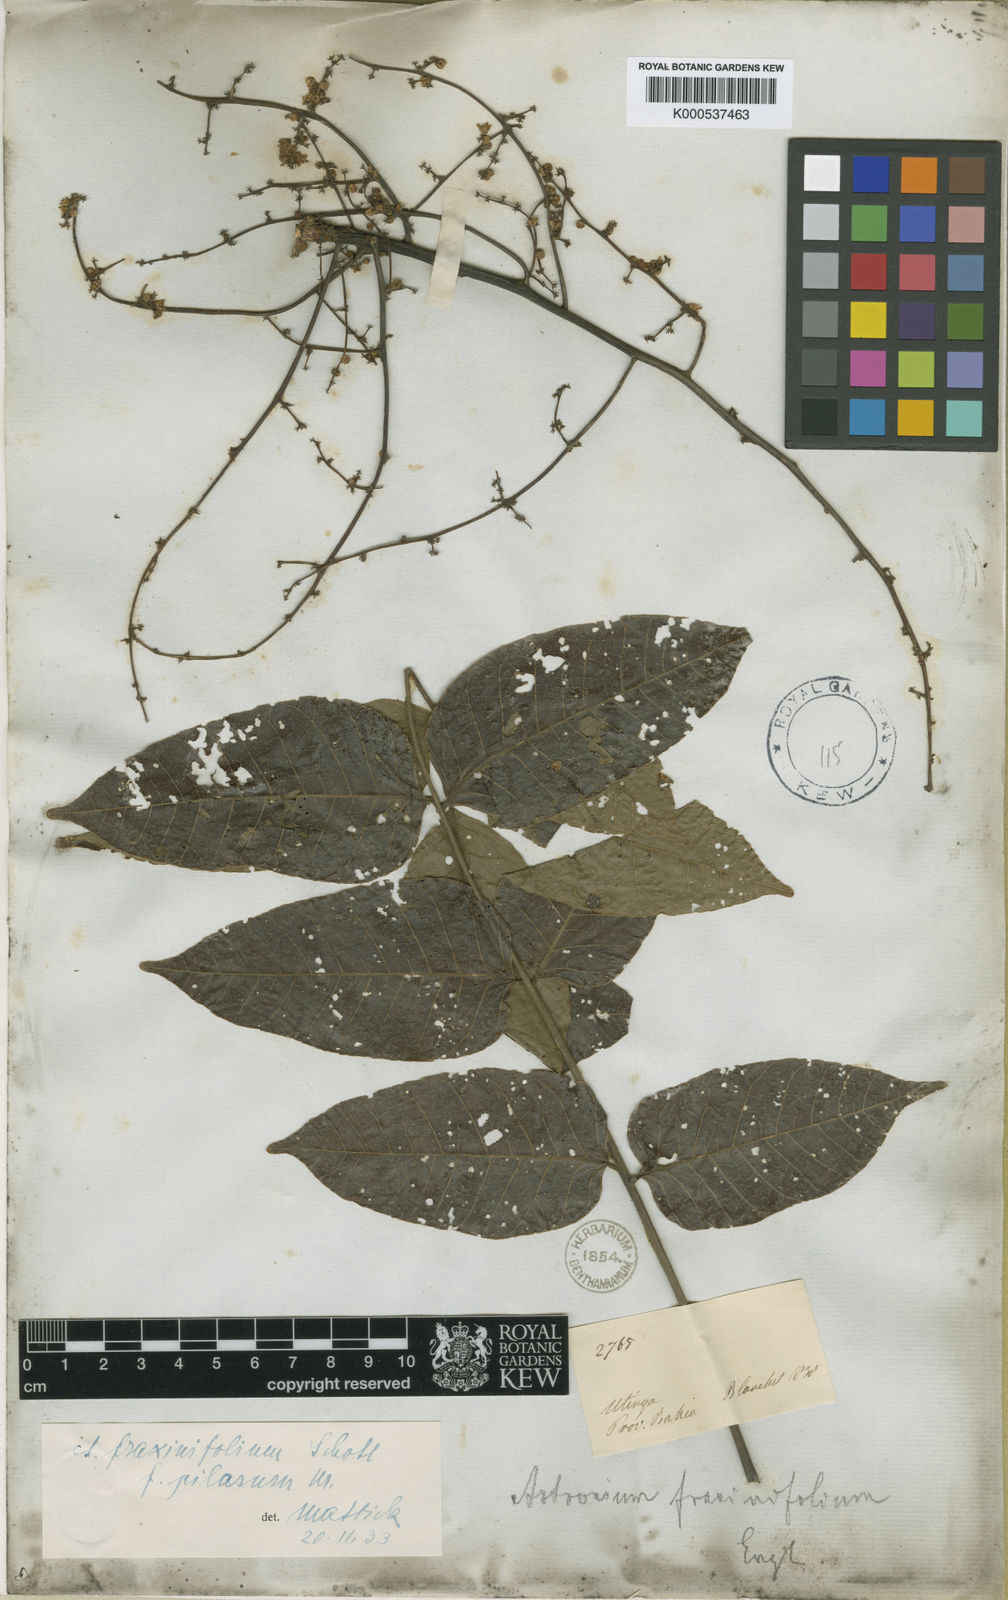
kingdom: Plantae
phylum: Tracheophyta
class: Magnoliopsida
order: Sapindales
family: Anacardiaceae
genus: Astronium
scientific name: Astronium fraxinifolium
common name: Tigerwood
